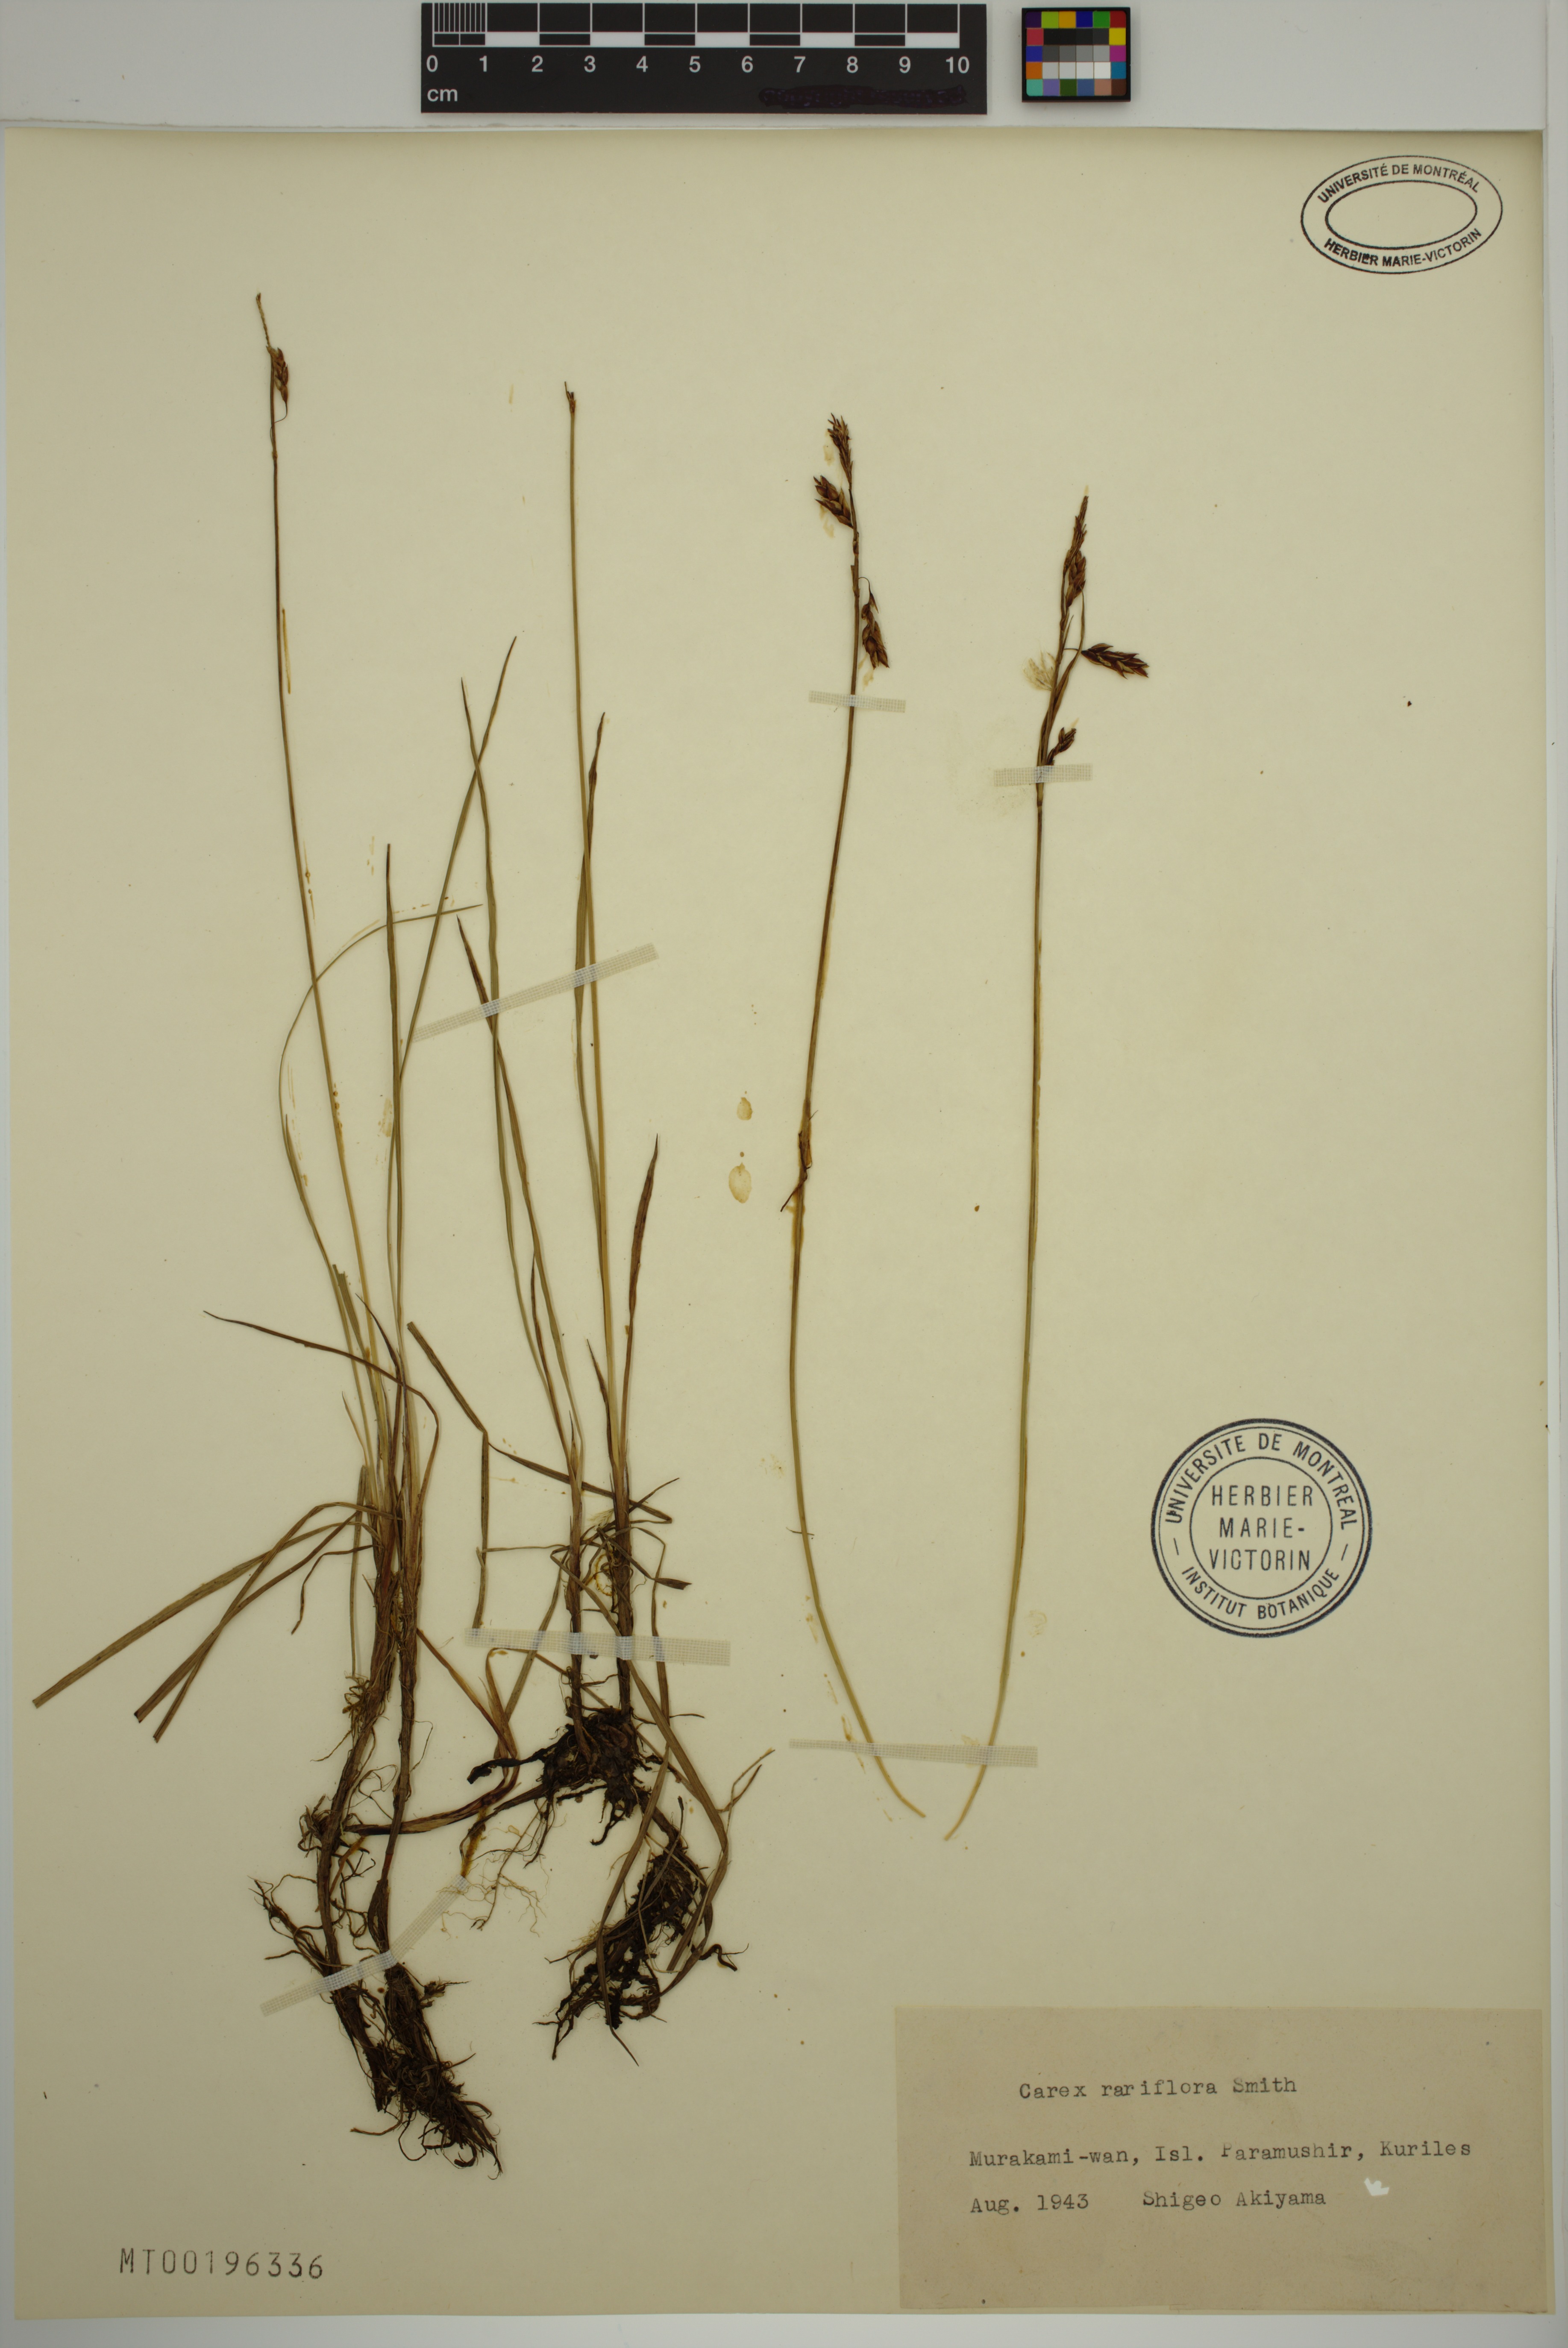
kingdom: Plantae
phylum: Tracheophyta
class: Liliopsida
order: Poales
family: Cyperaceae
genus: Carex
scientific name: Carex rariflora
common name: Loose-flowered alpine sedge
